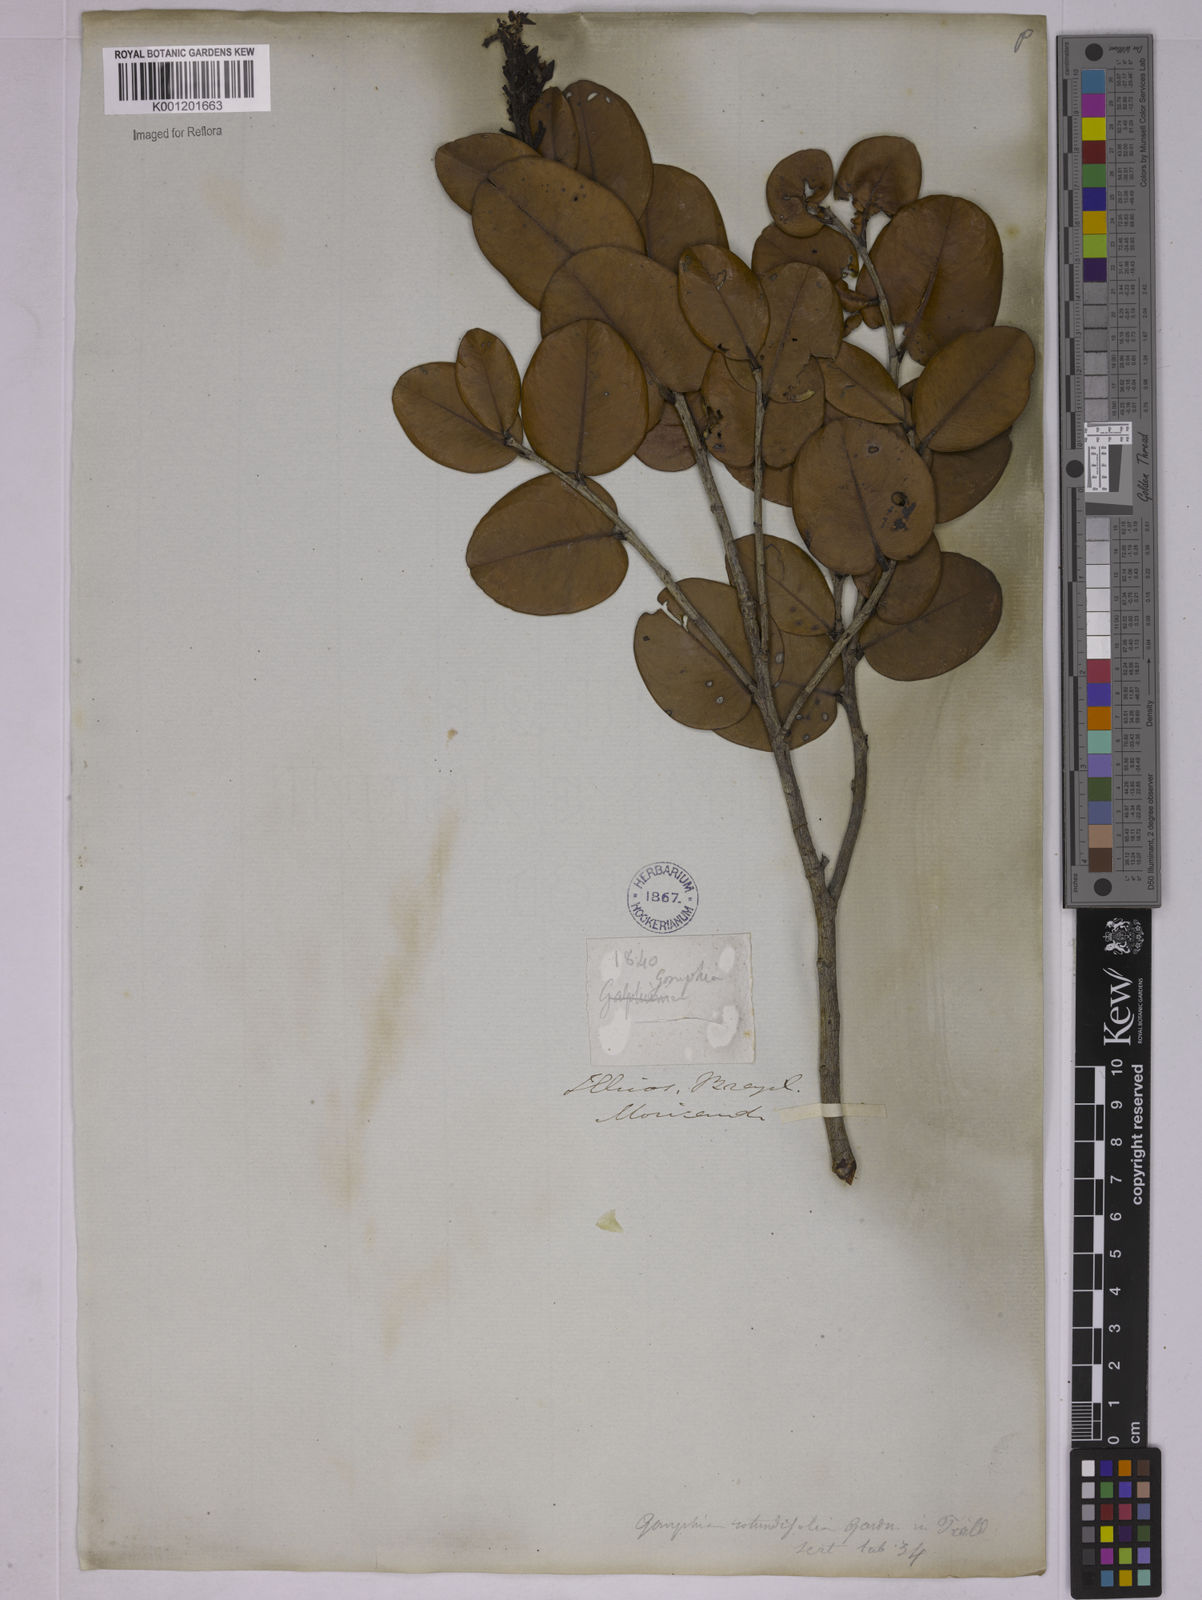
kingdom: Plantae
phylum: Tracheophyta
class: Magnoliopsida
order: Malpighiales
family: Ochnaceae
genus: Ouratea
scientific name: Ouratea rotundifolia
